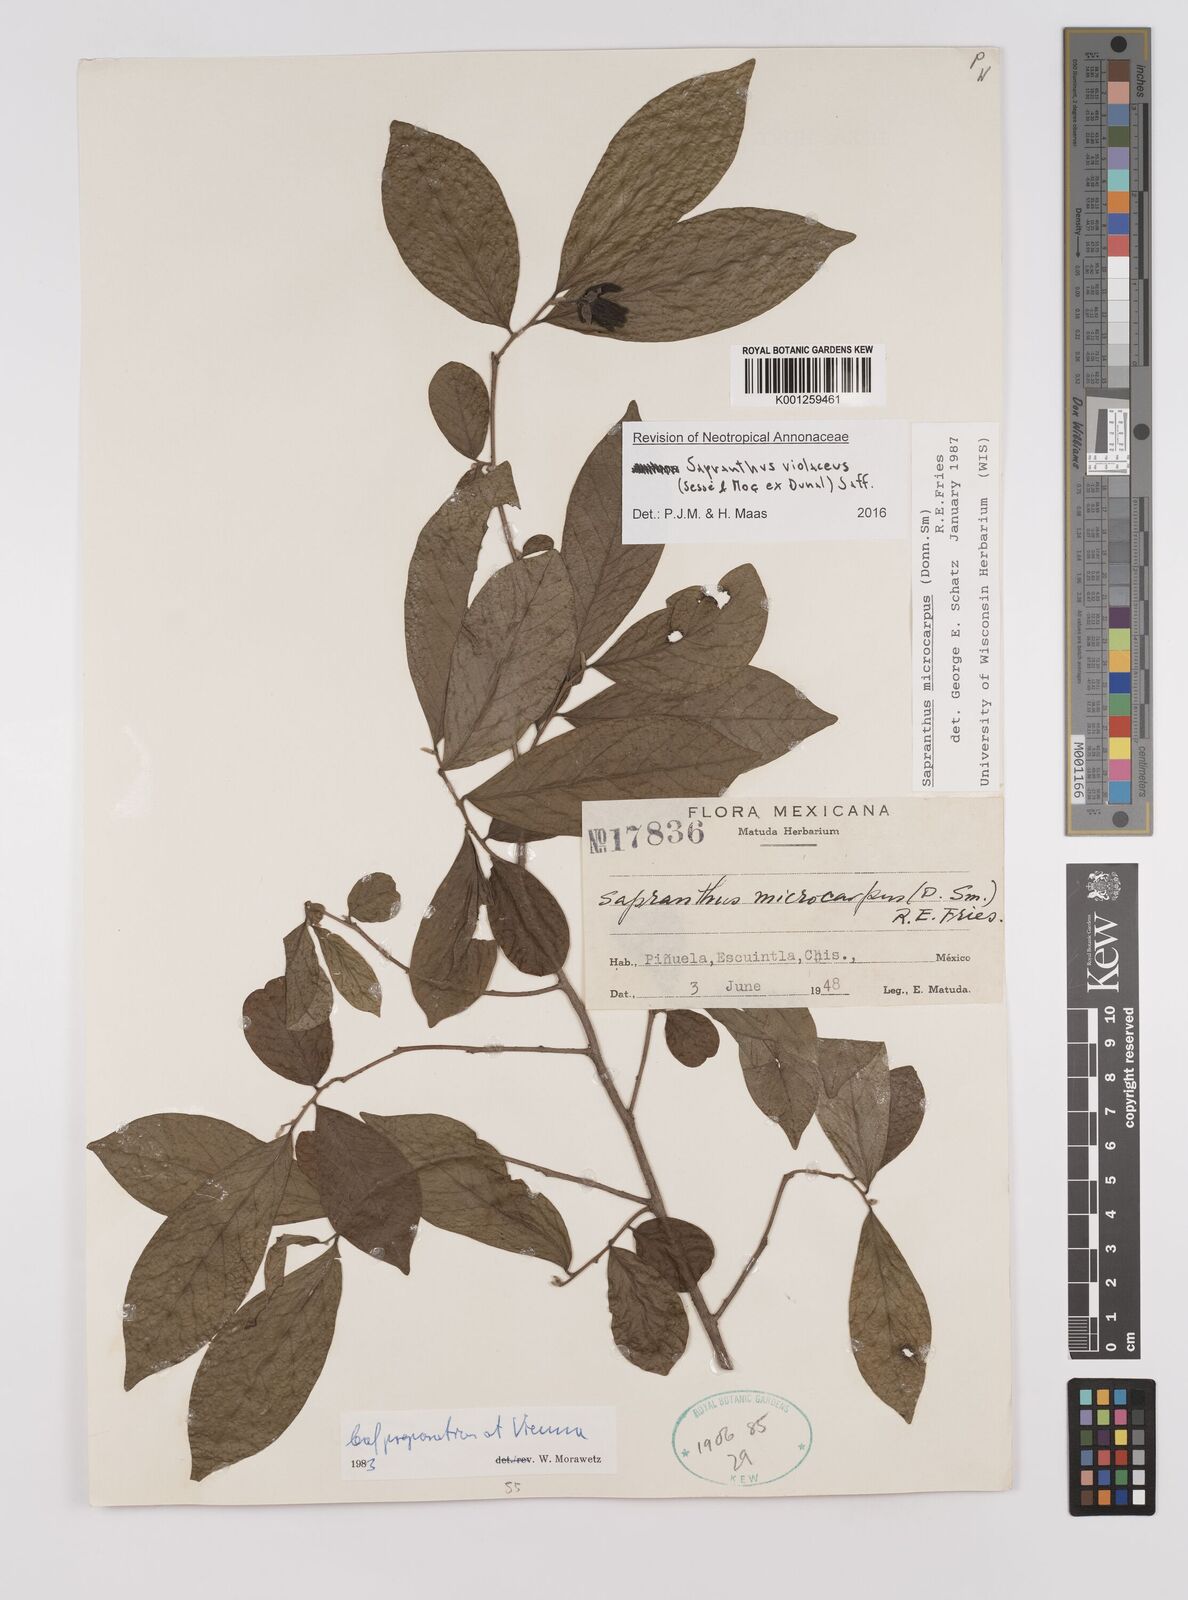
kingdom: Plantae
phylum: Tracheophyta
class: Magnoliopsida
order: Magnoliales
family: Annonaceae
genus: Sapranthus
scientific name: Sapranthus
